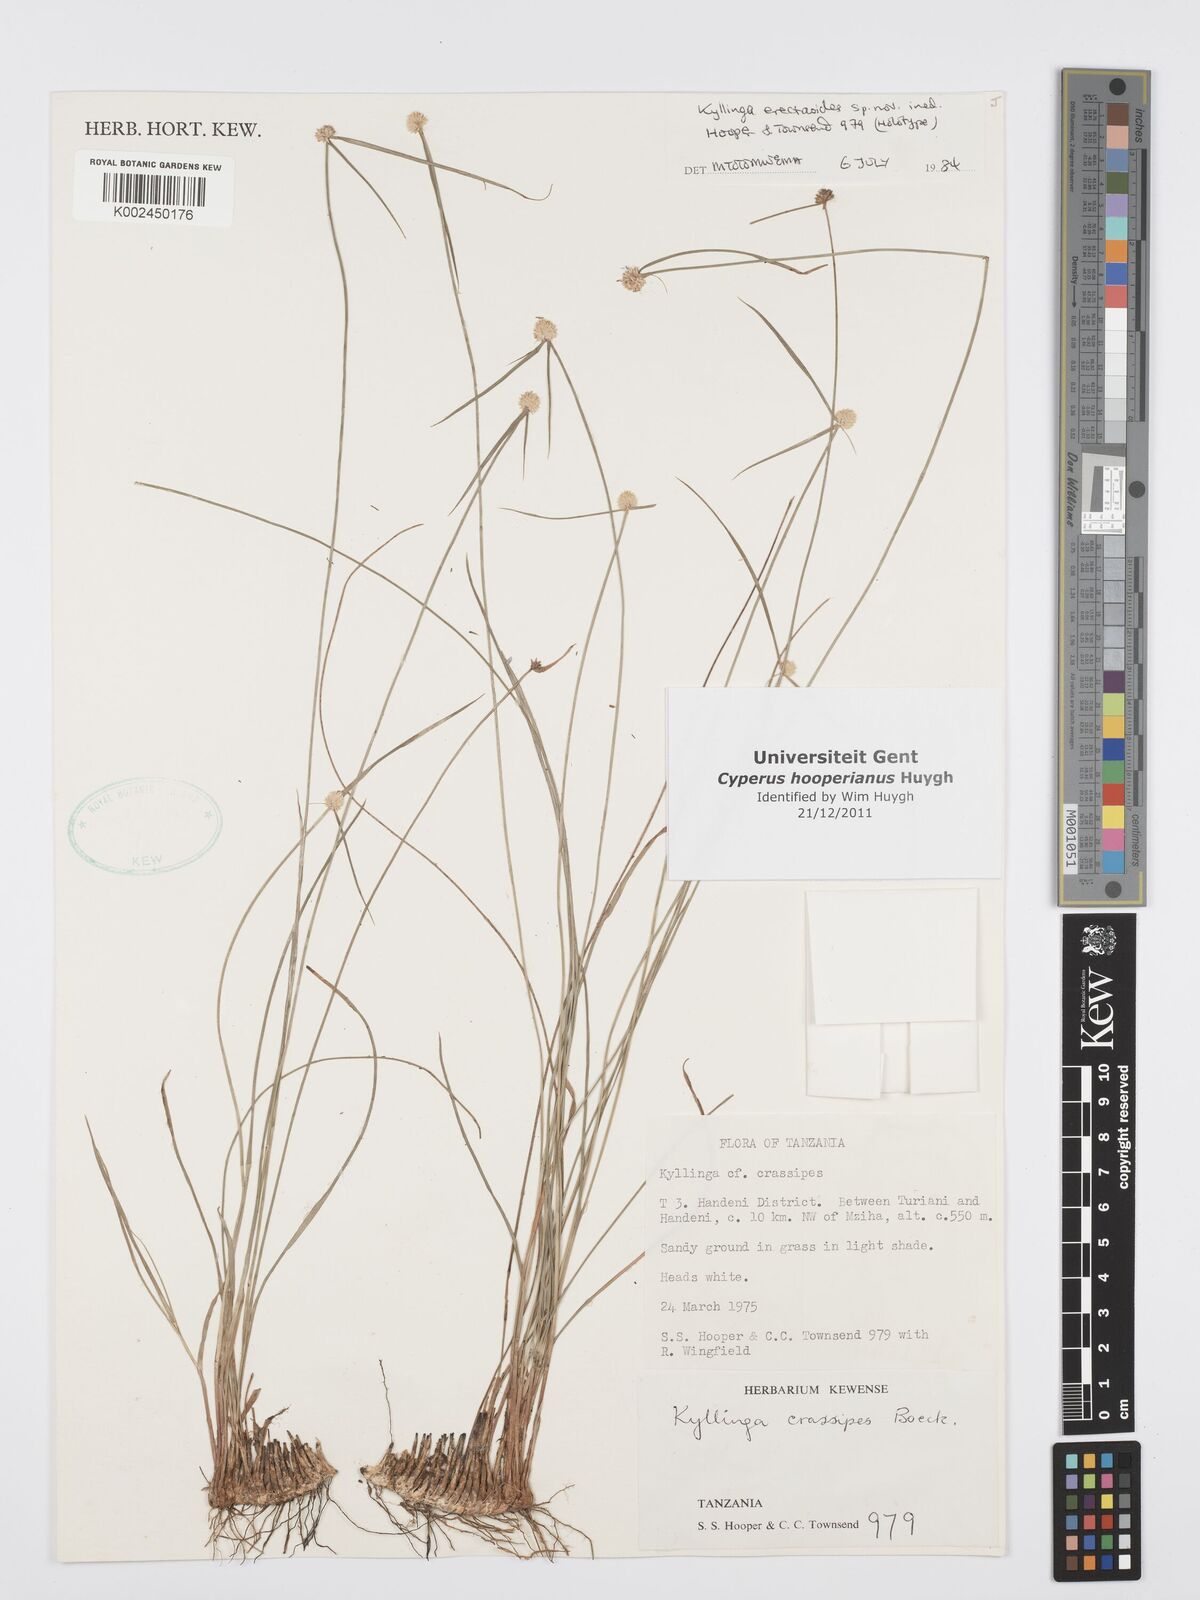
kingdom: Plantae
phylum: Tracheophyta
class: Liliopsida
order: Poales
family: Cyperaceae
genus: Cyperus
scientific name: Cyperus
